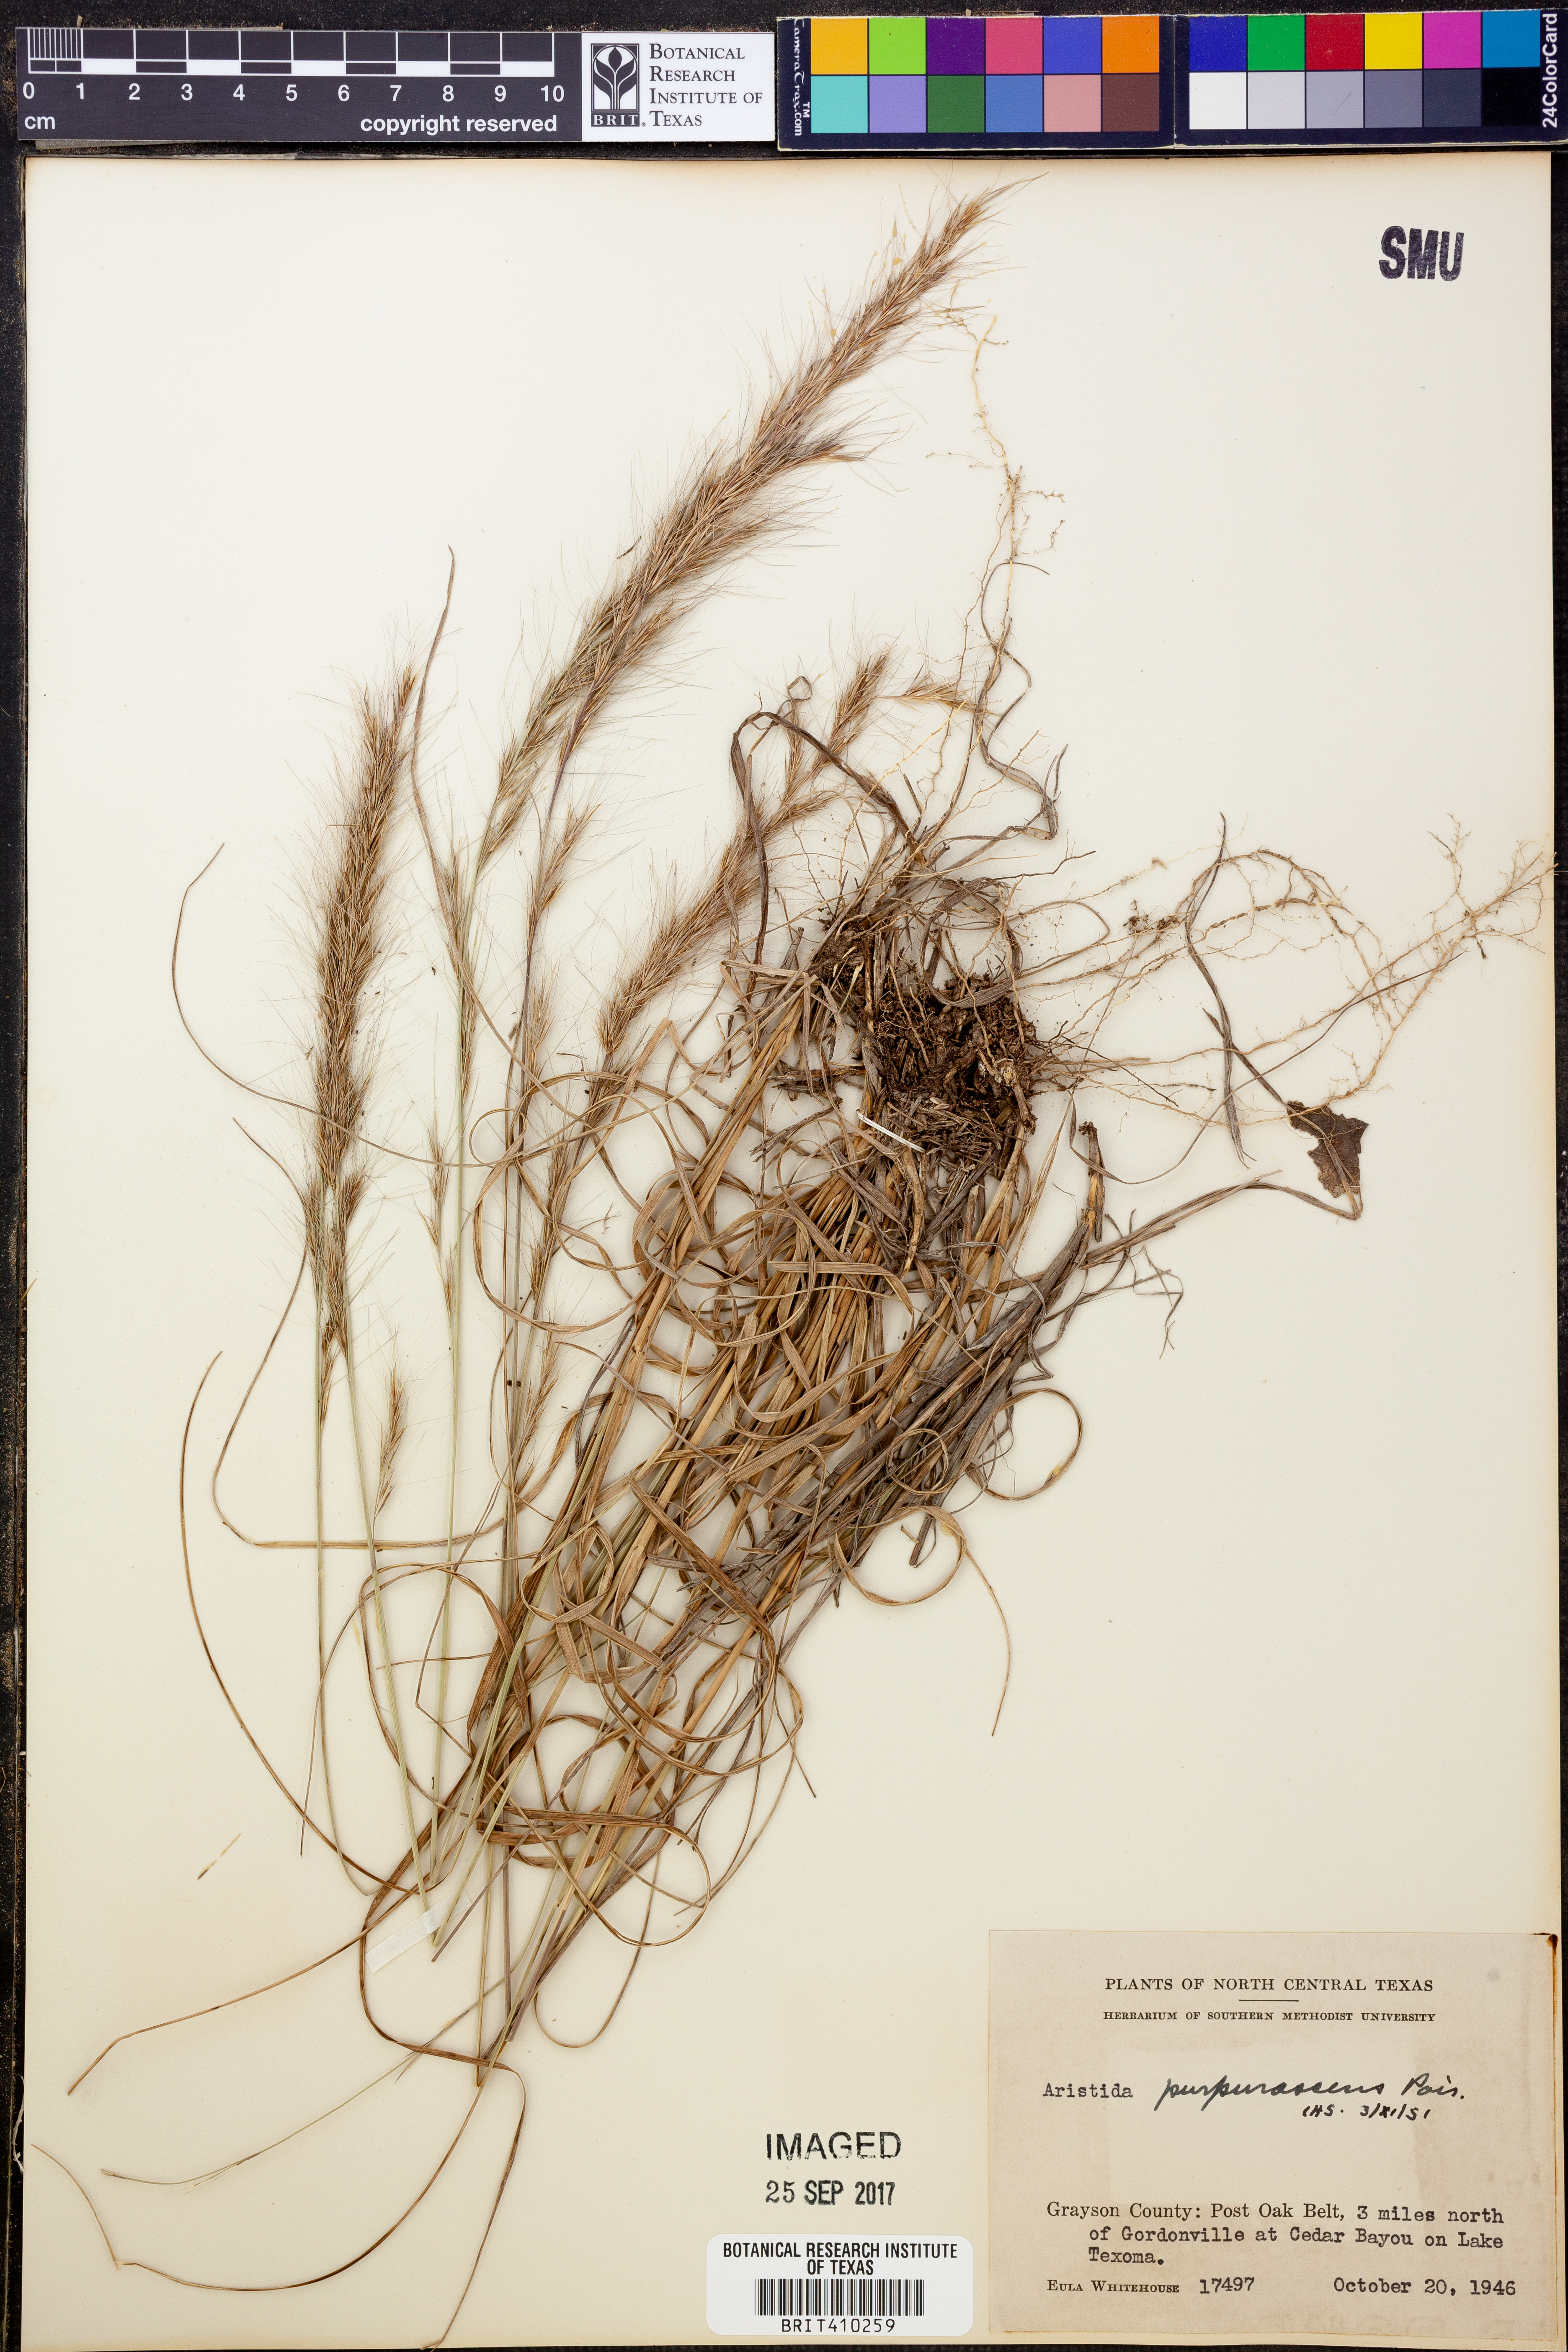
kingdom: Plantae
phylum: Tracheophyta
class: Liliopsida
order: Poales
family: Poaceae
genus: Aristida
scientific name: Aristida purpurascens
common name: Arrow-feather
